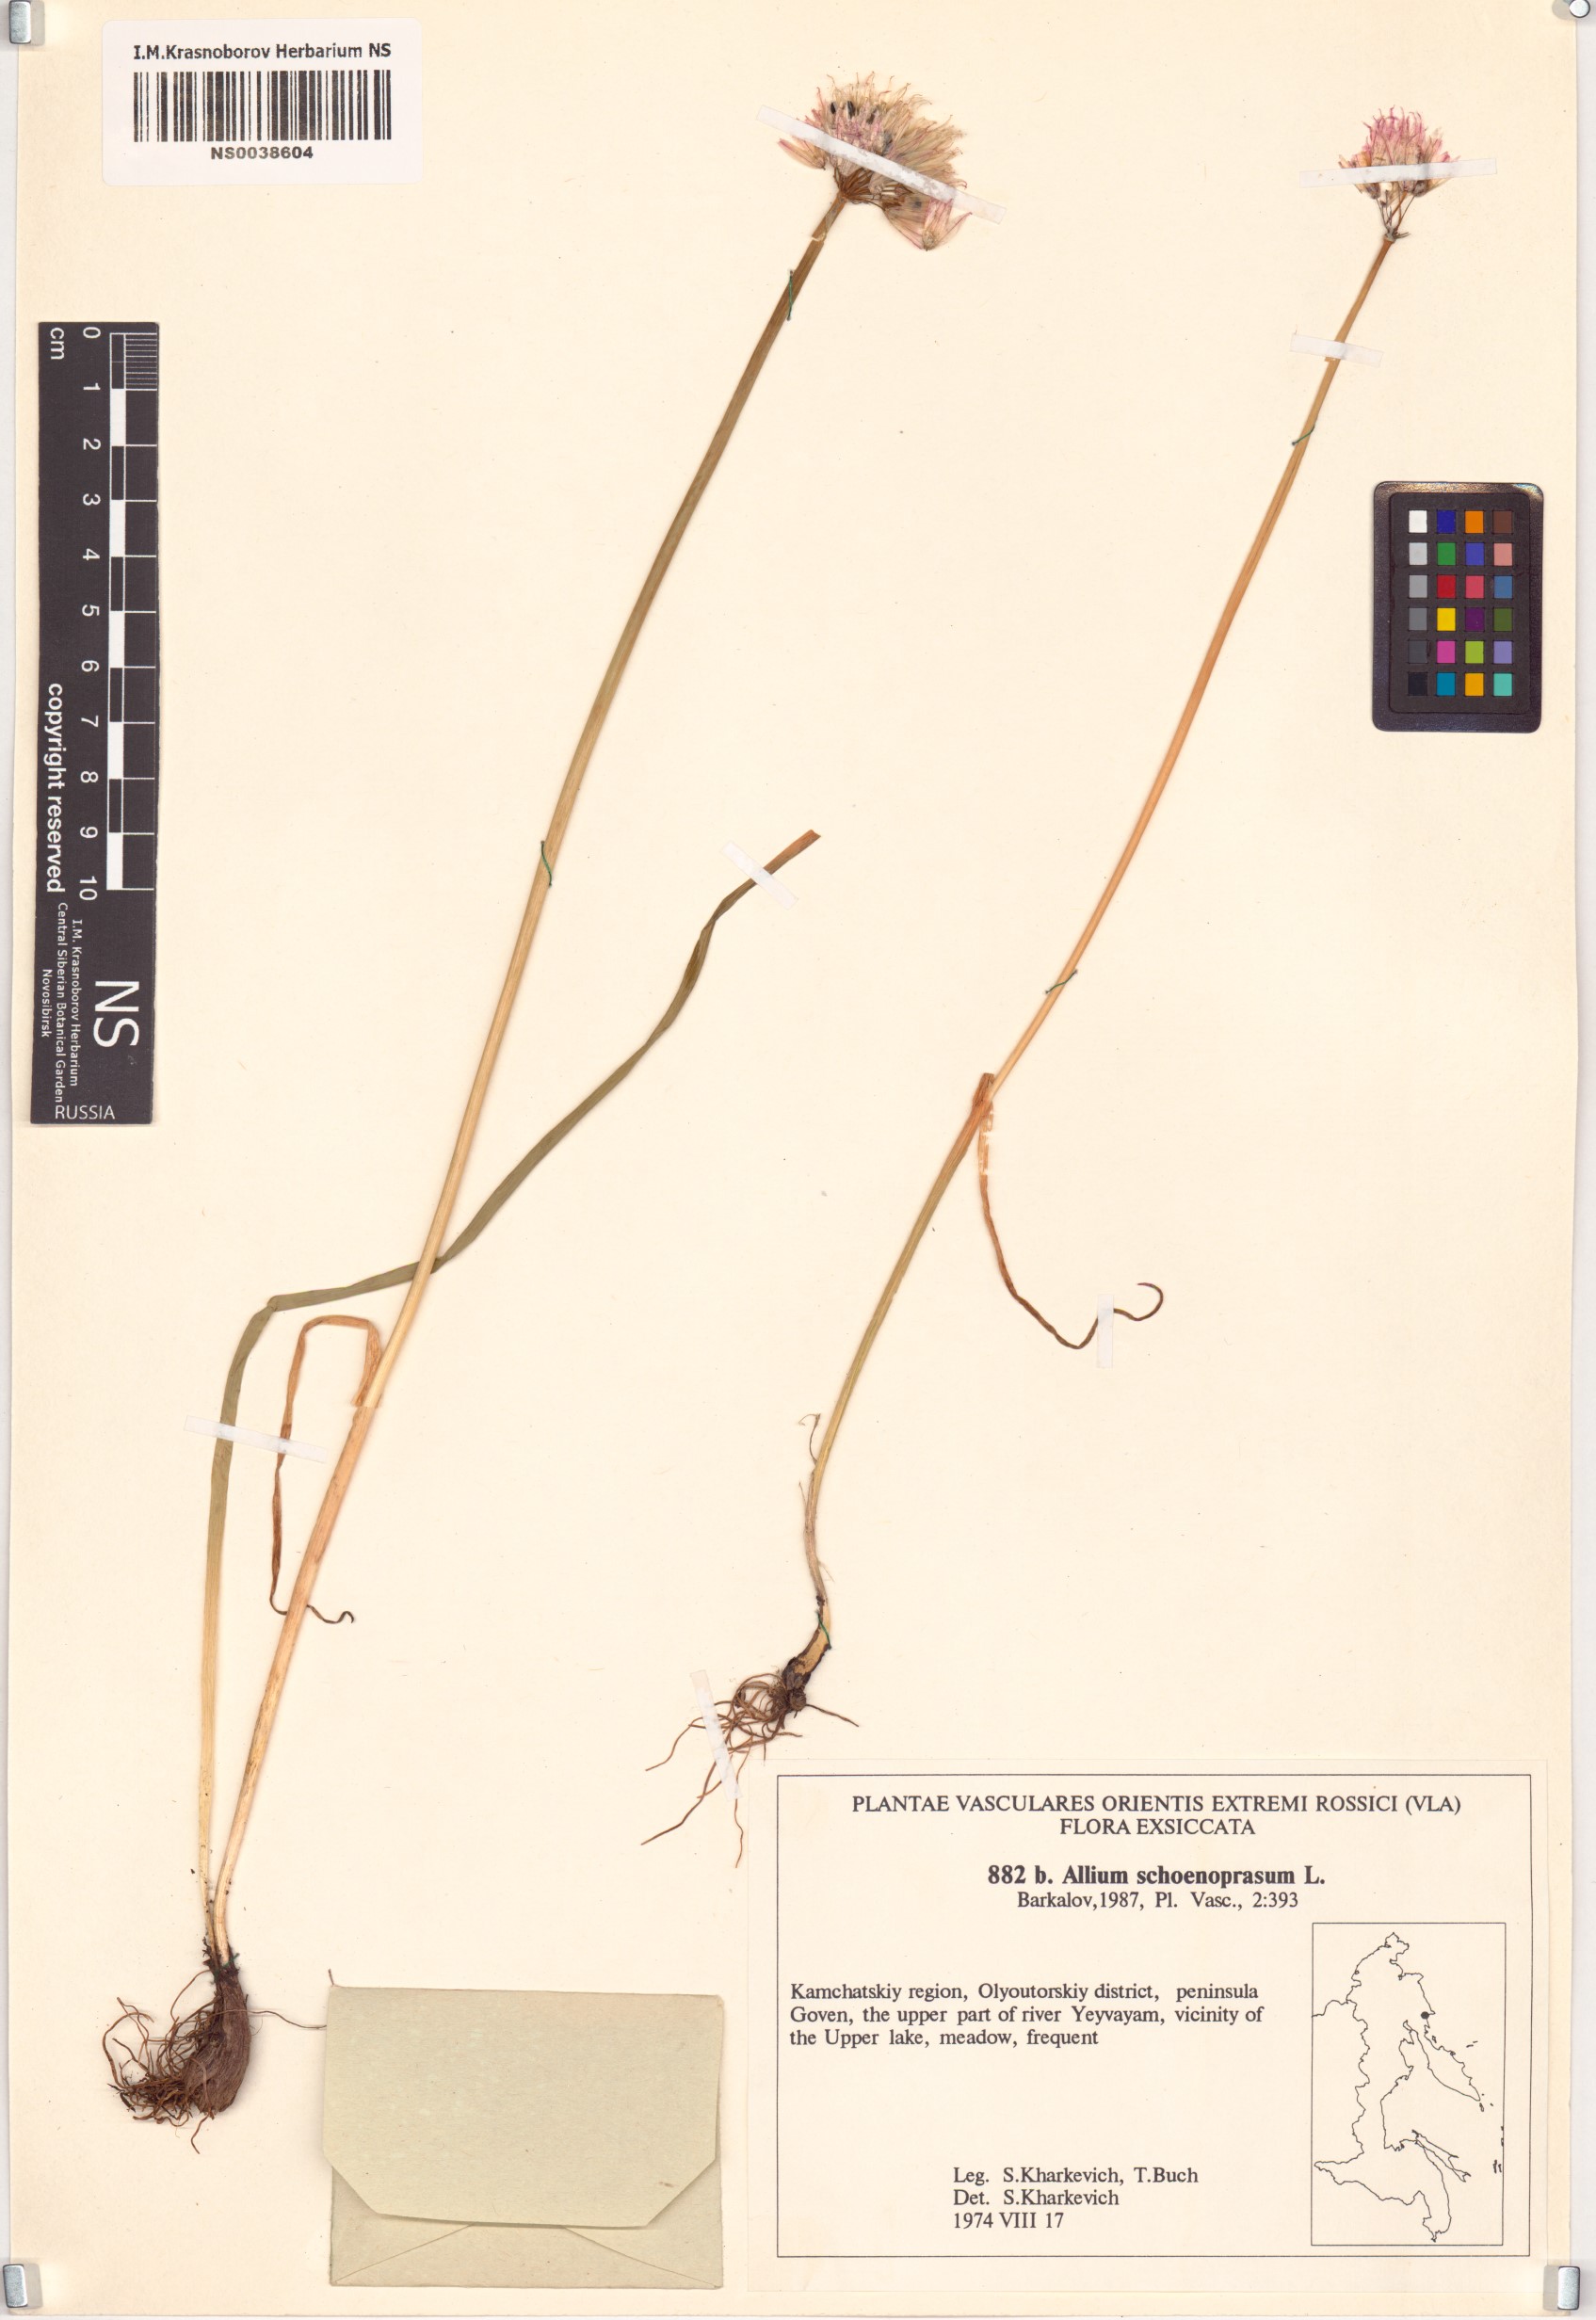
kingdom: Plantae
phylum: Tracheophyta
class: Liliopsida
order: Asparagales
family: Amaryllidaceae
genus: Allium
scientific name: Allium schoenoprasum
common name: Chives
